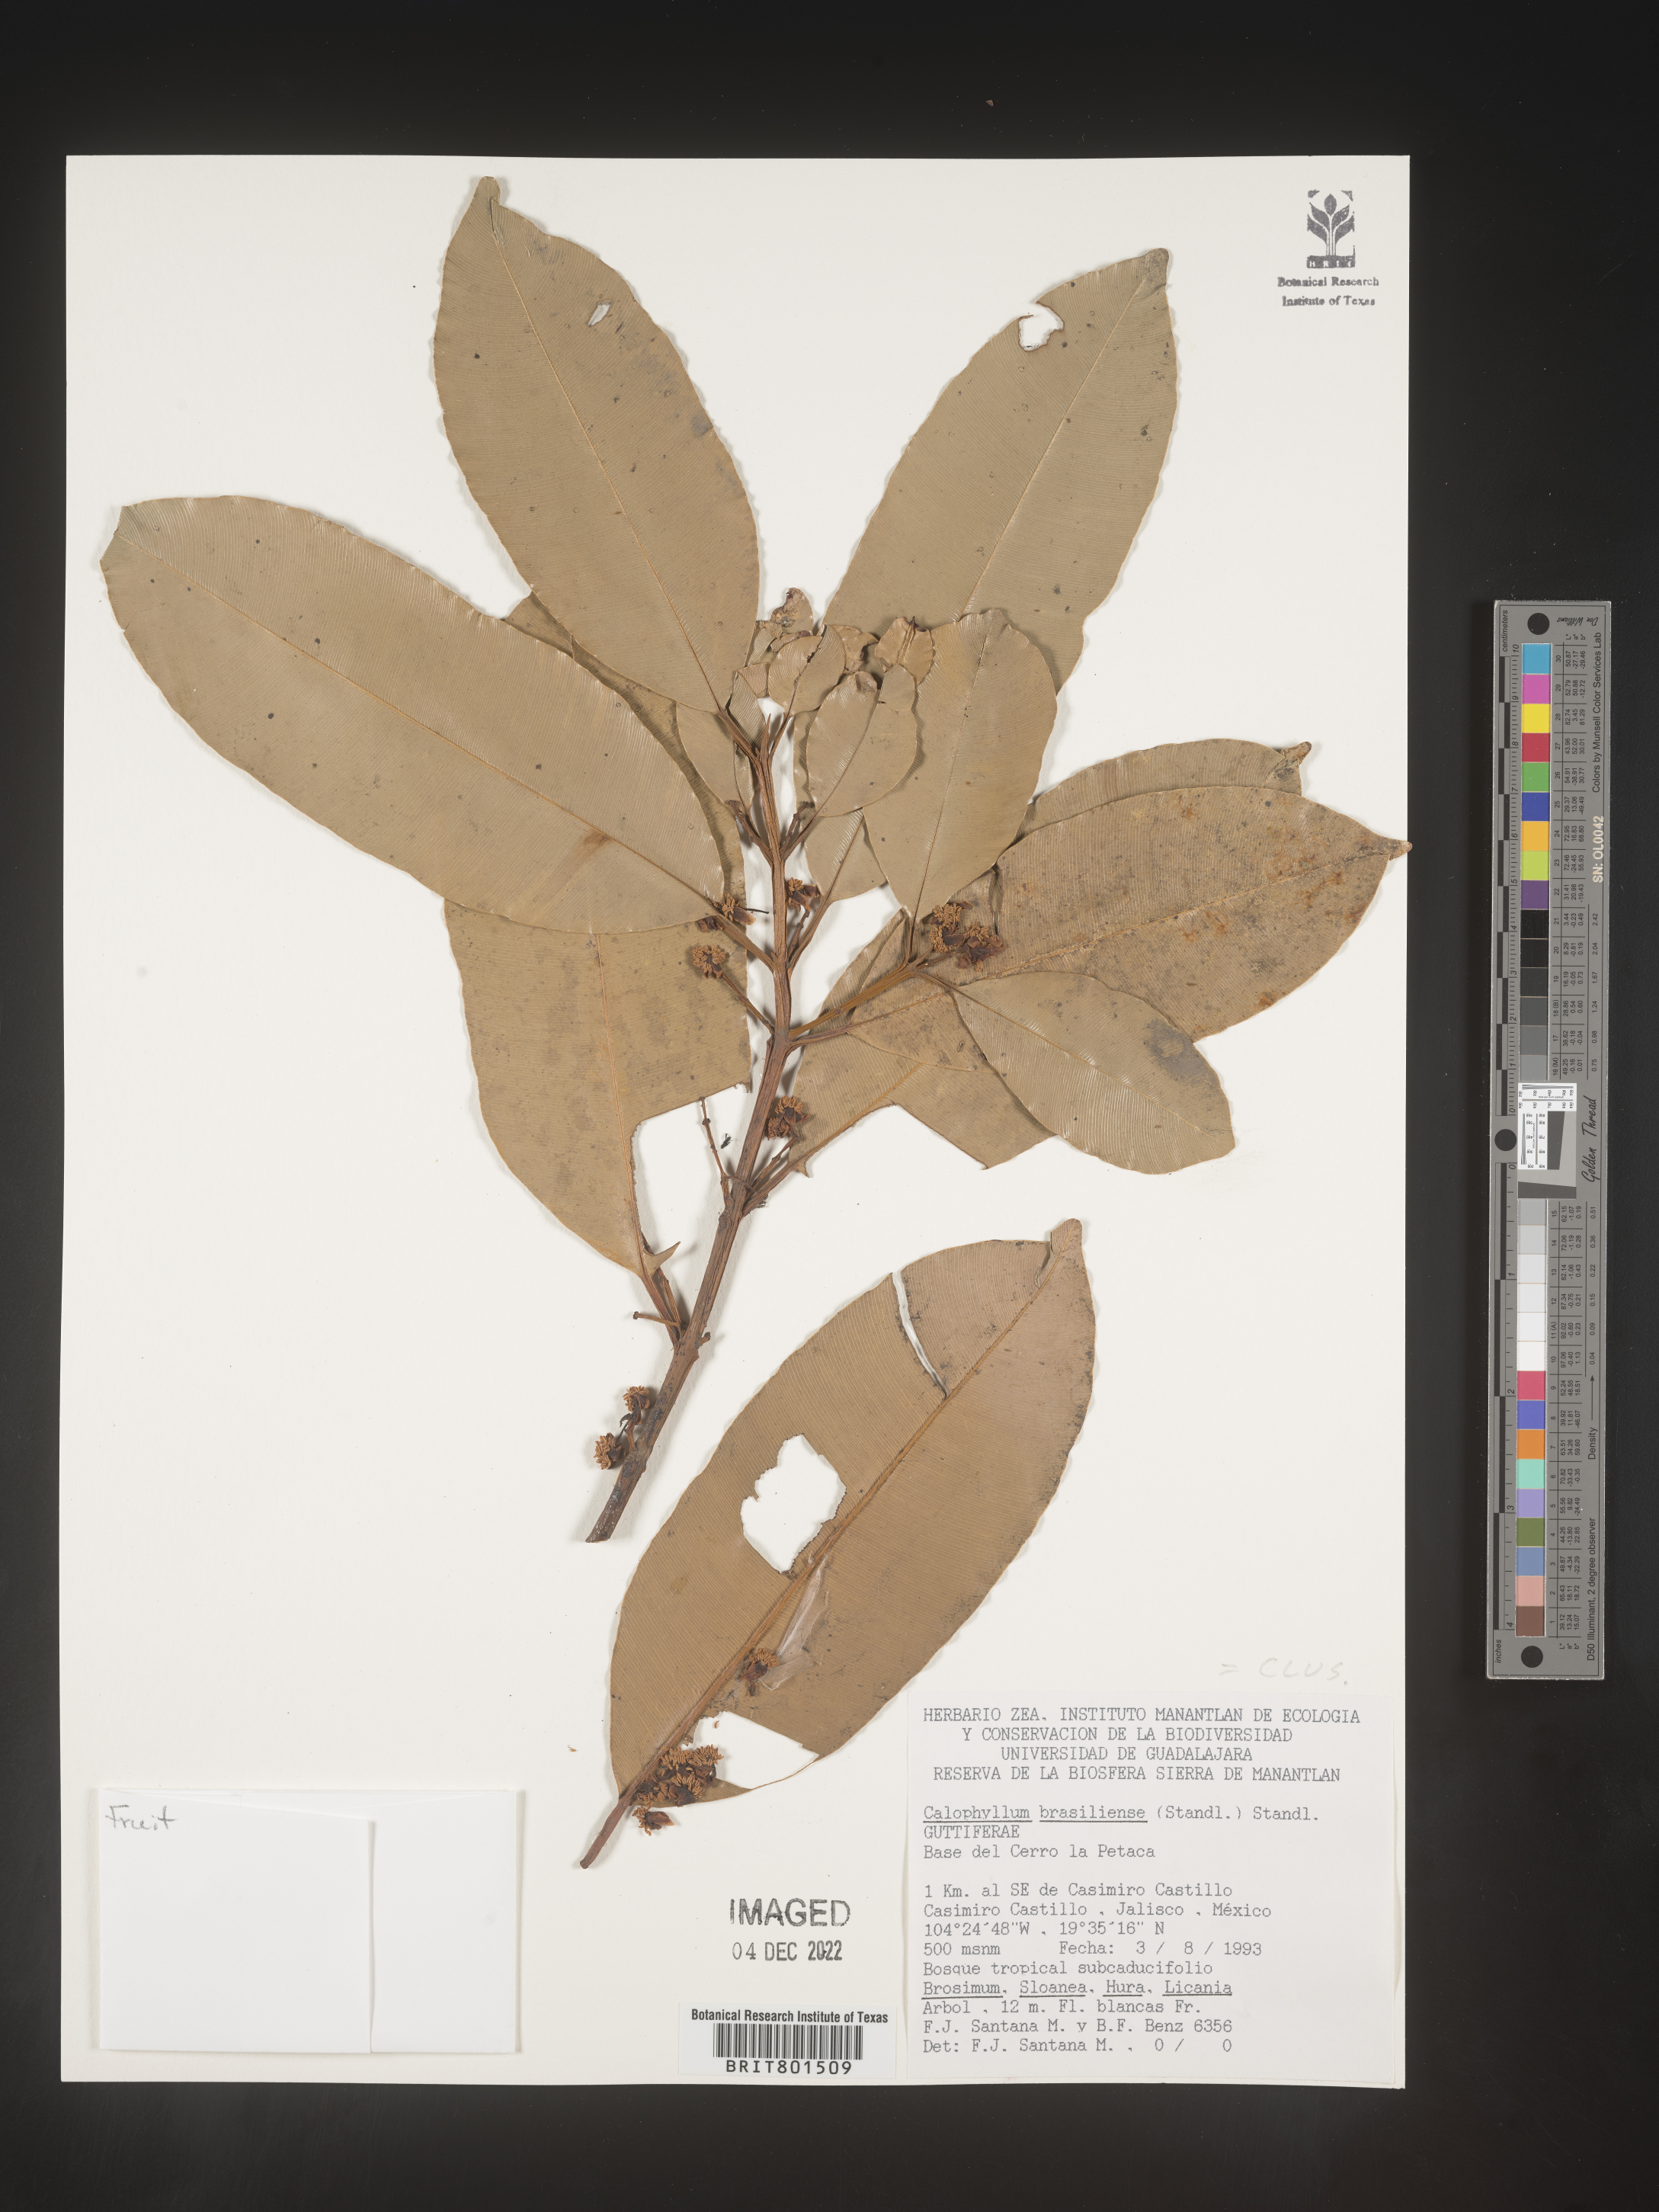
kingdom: Plantae
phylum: Tracheophyta
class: Magnoliopsida
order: Malpighiales
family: Calophyllaceae
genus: Calophyllum
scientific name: Calophyllum
